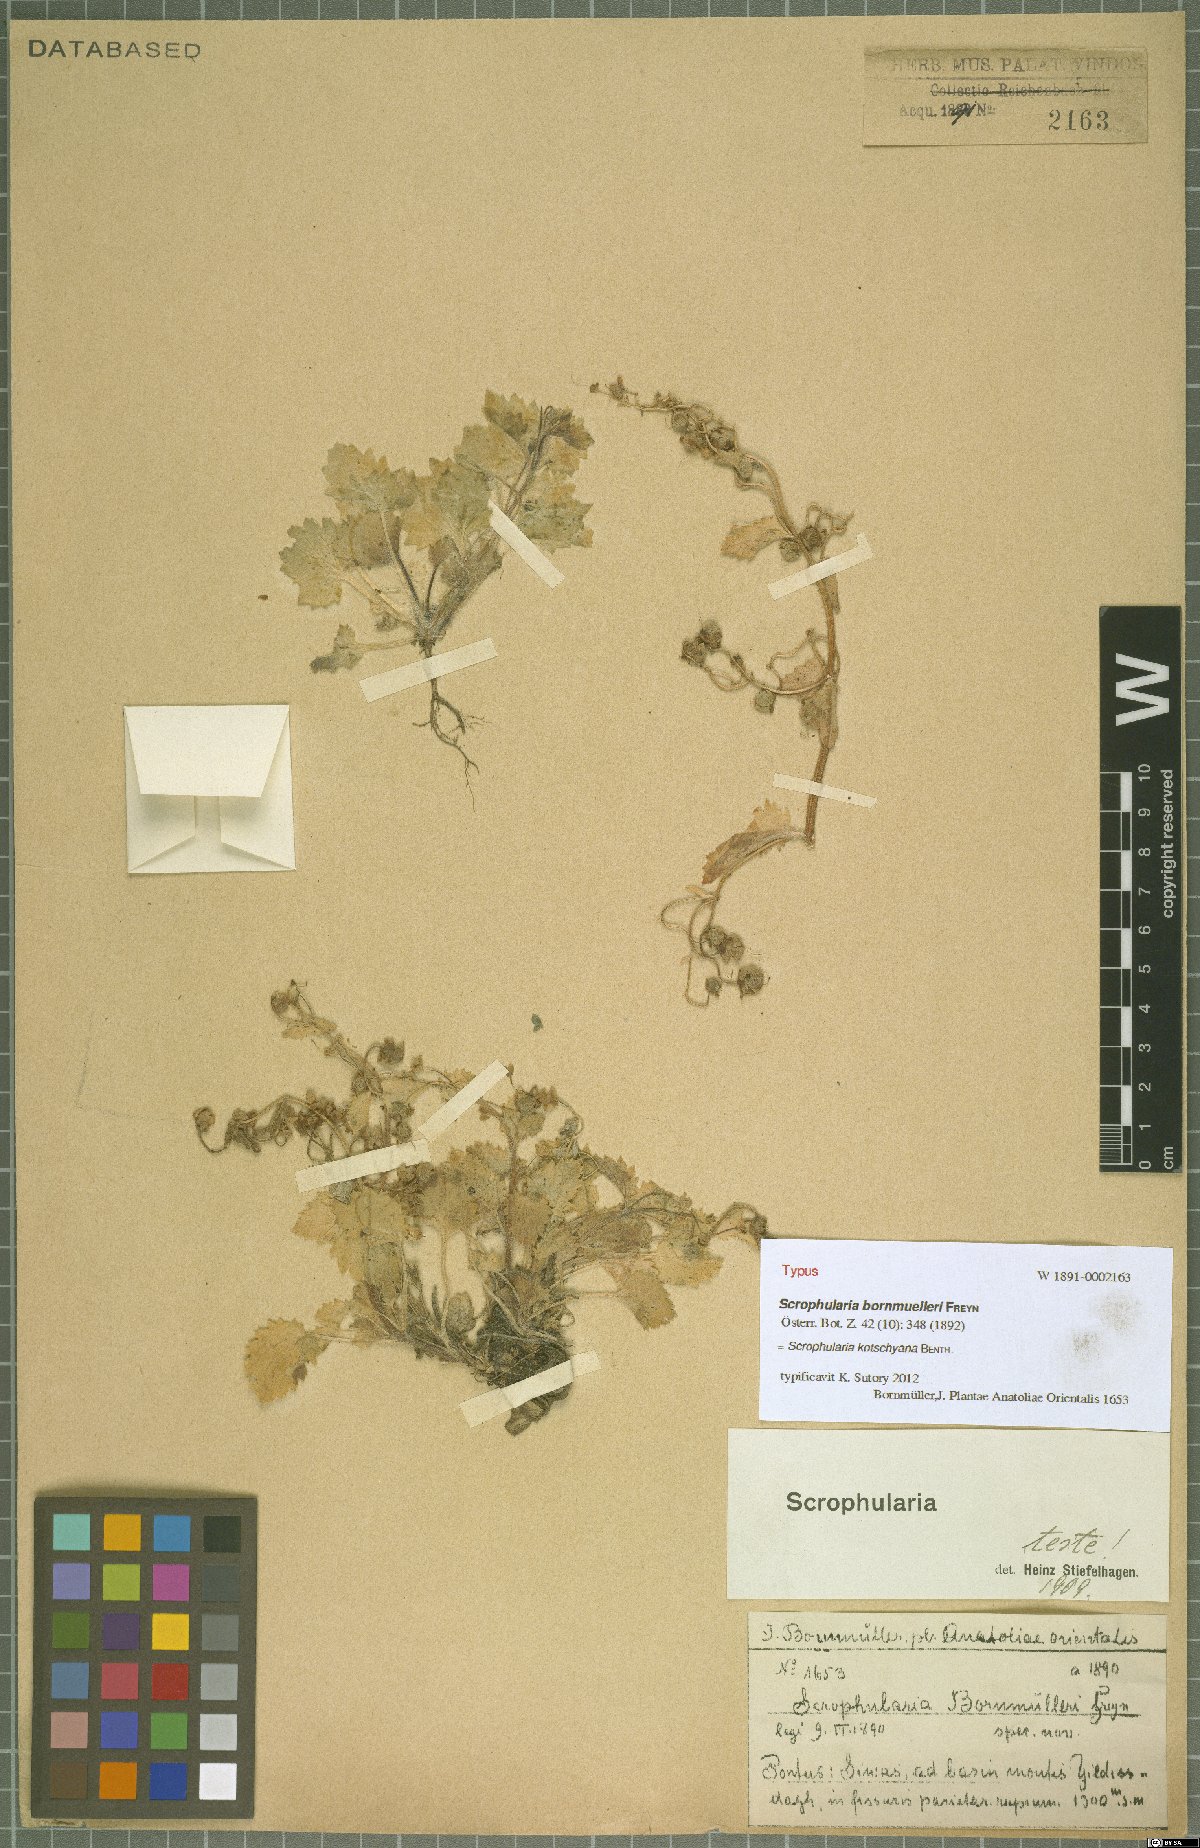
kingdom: Plantae
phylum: Tracheophyta
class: Magnoliopsida
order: Lamiales
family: Scrophulariaceae
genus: Scrophularia
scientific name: Scrophularia kotschyana
